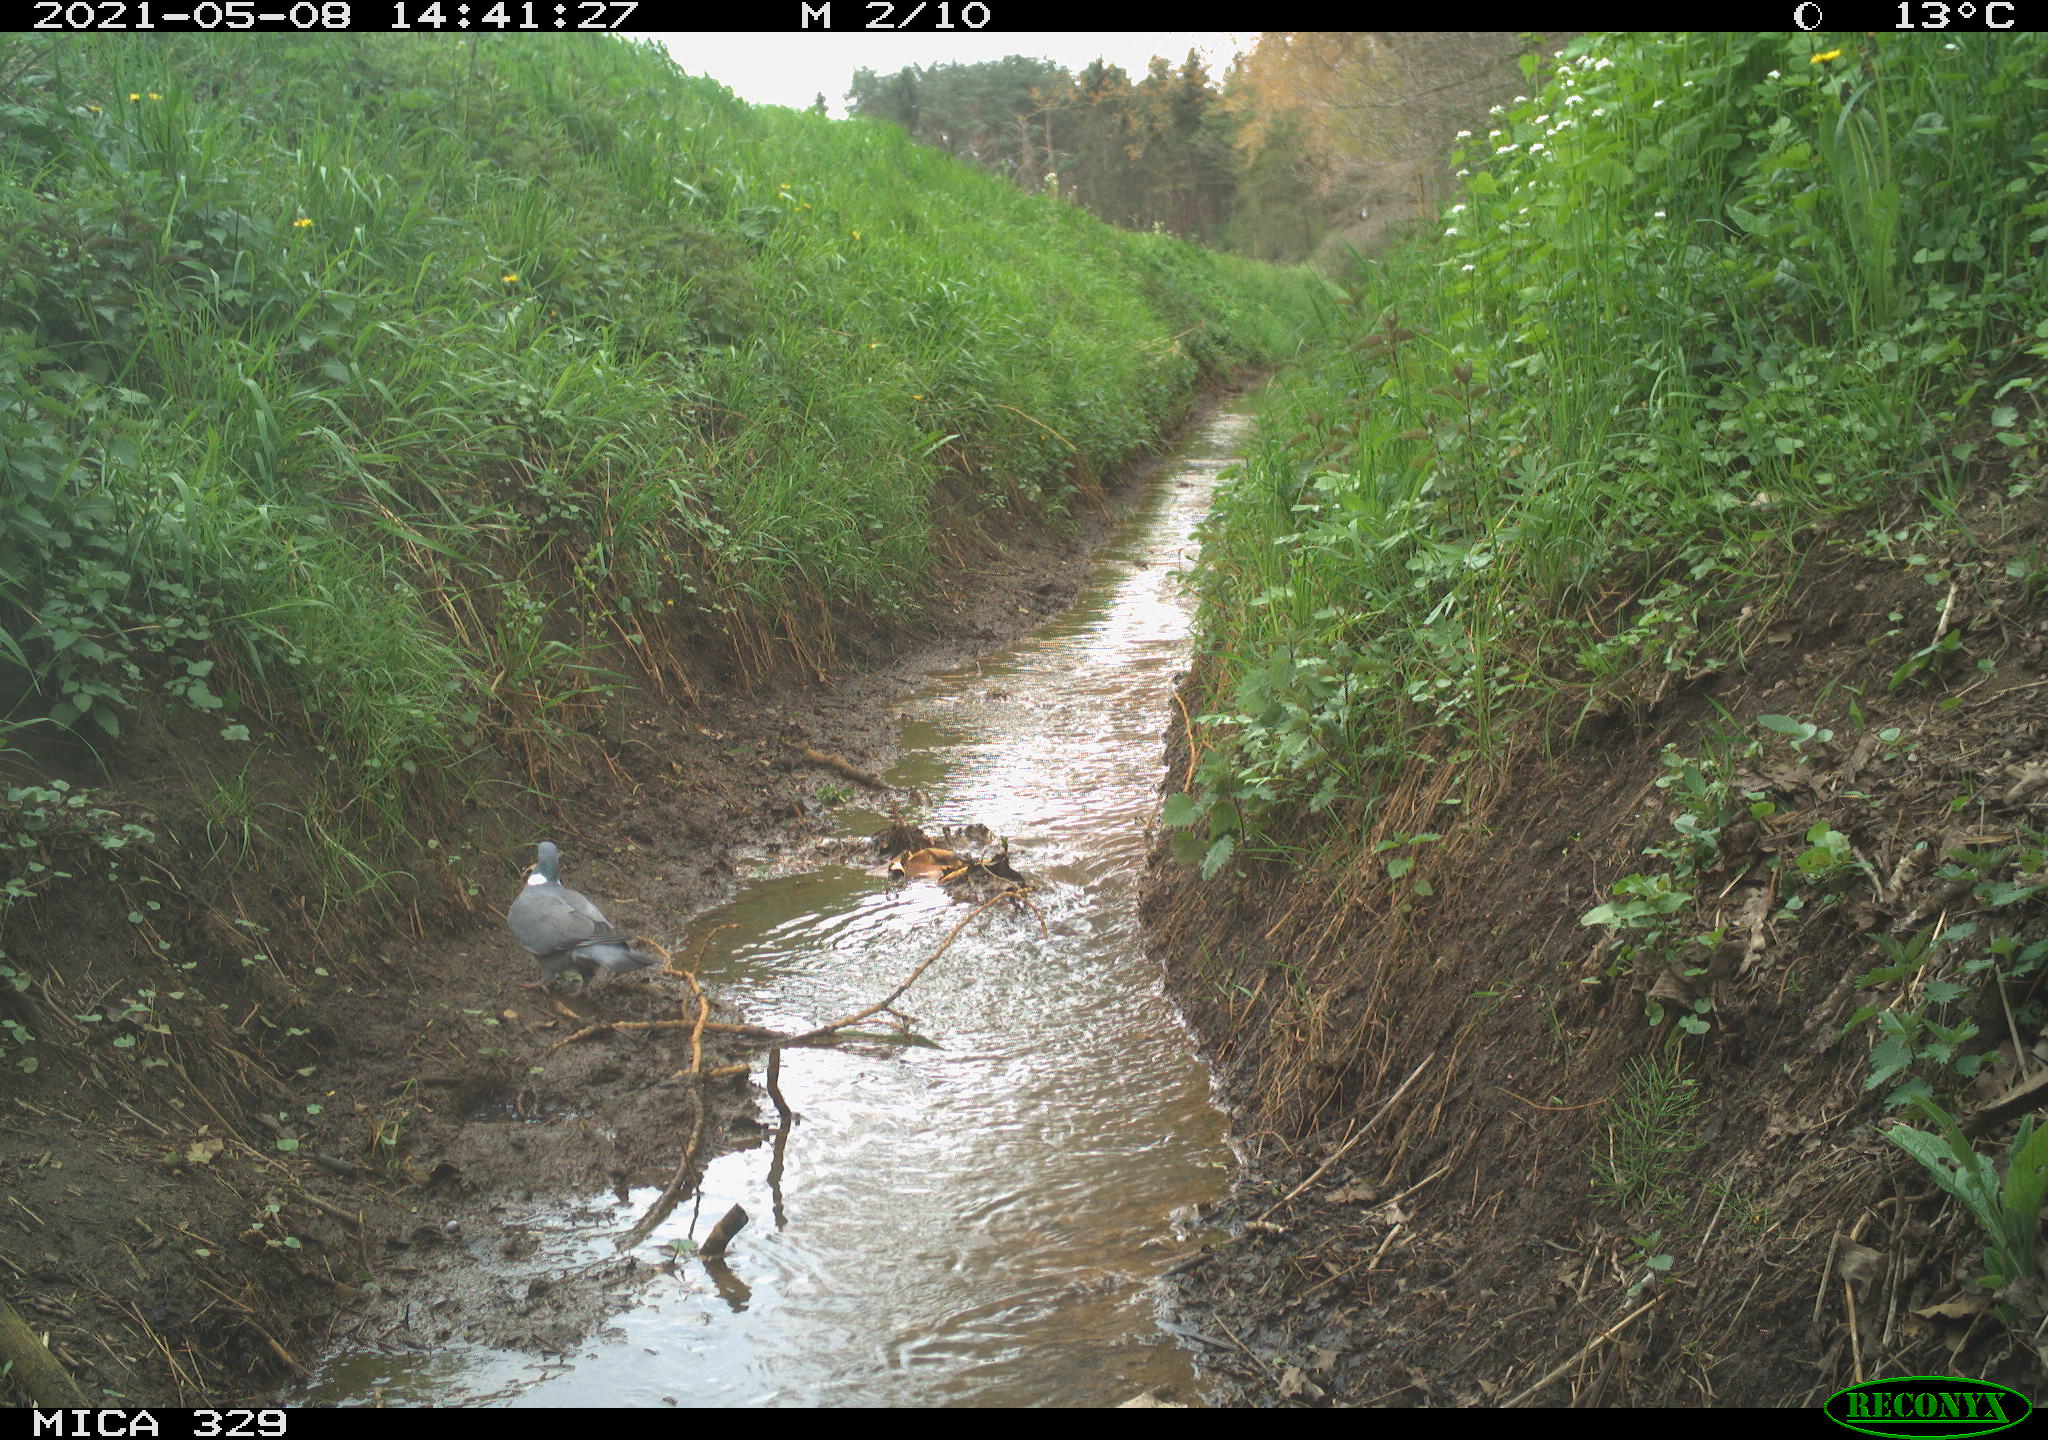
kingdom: Animalia
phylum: Chordata
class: Aves
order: Columbiformes
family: Columbidae
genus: Columba
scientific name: Columba palumbus
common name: Common wood pigeon
